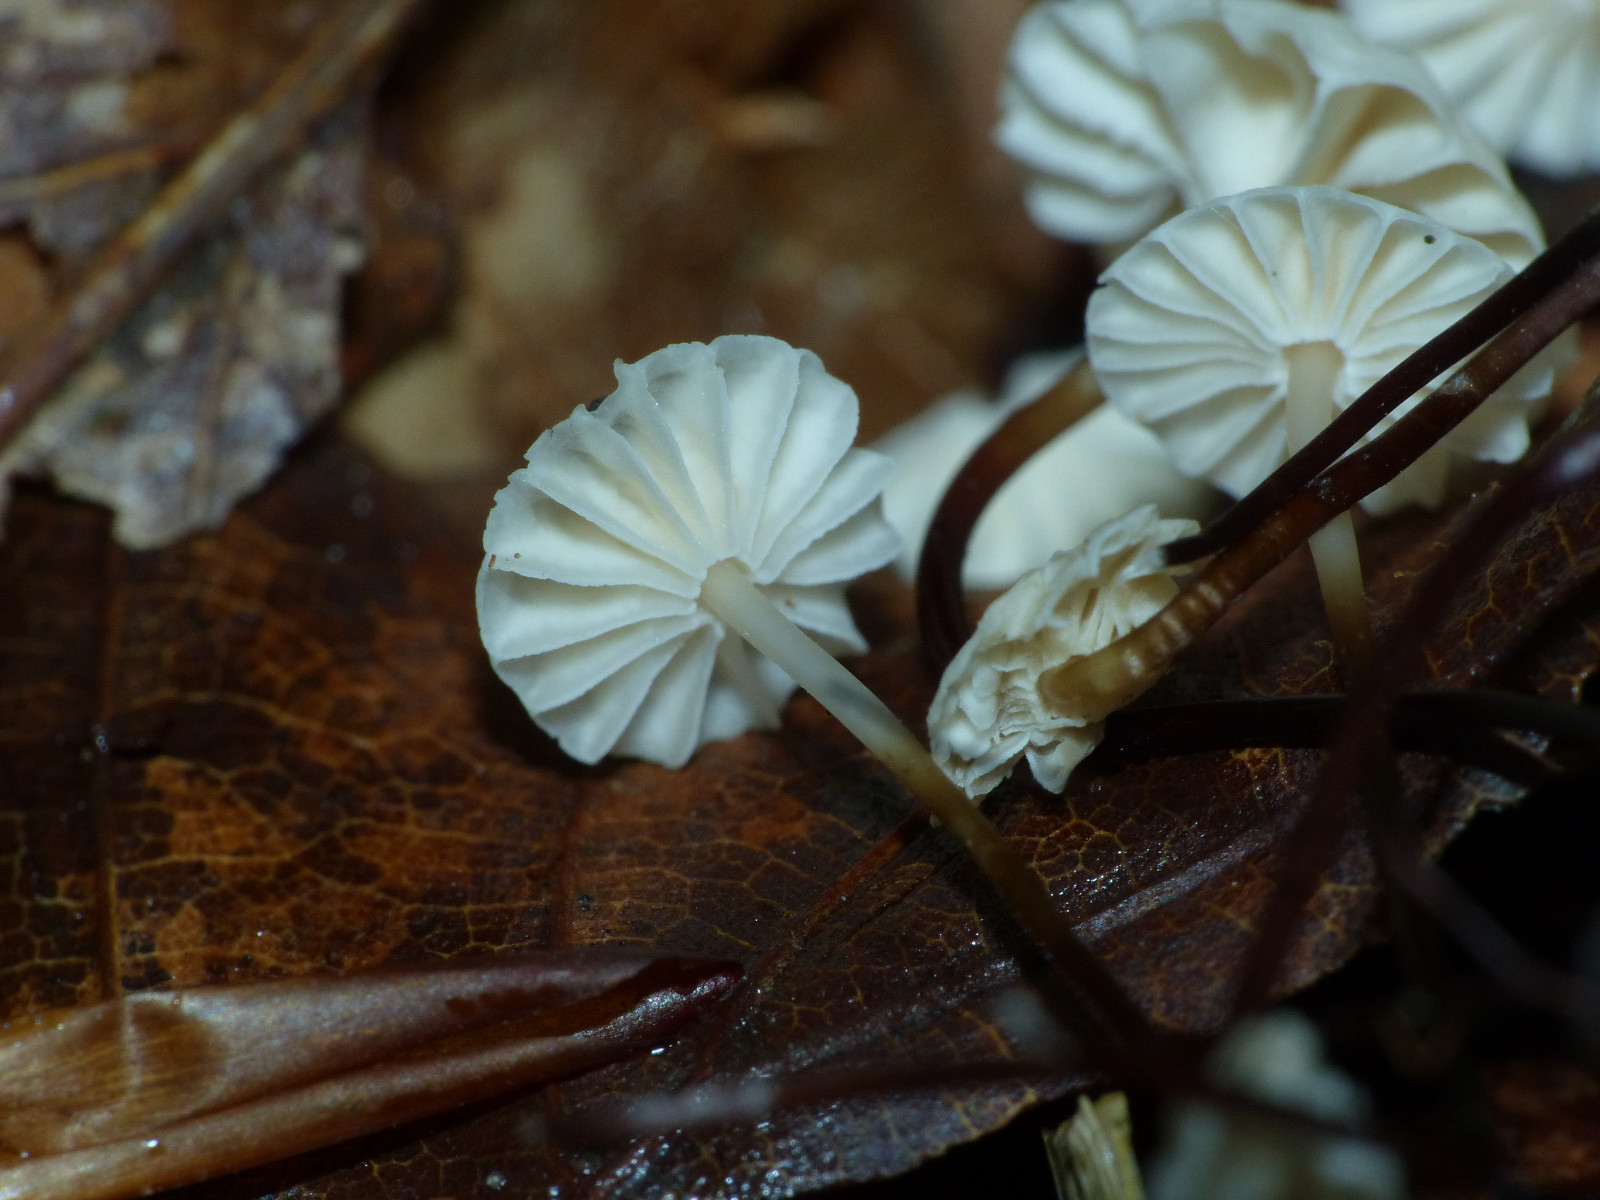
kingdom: Fungi
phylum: Basidiomycota
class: Agaricomycetes
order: Agaricales
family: Marasmiaceae
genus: Marasmius
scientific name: Marasmius rotula
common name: hjul-bruskhat
